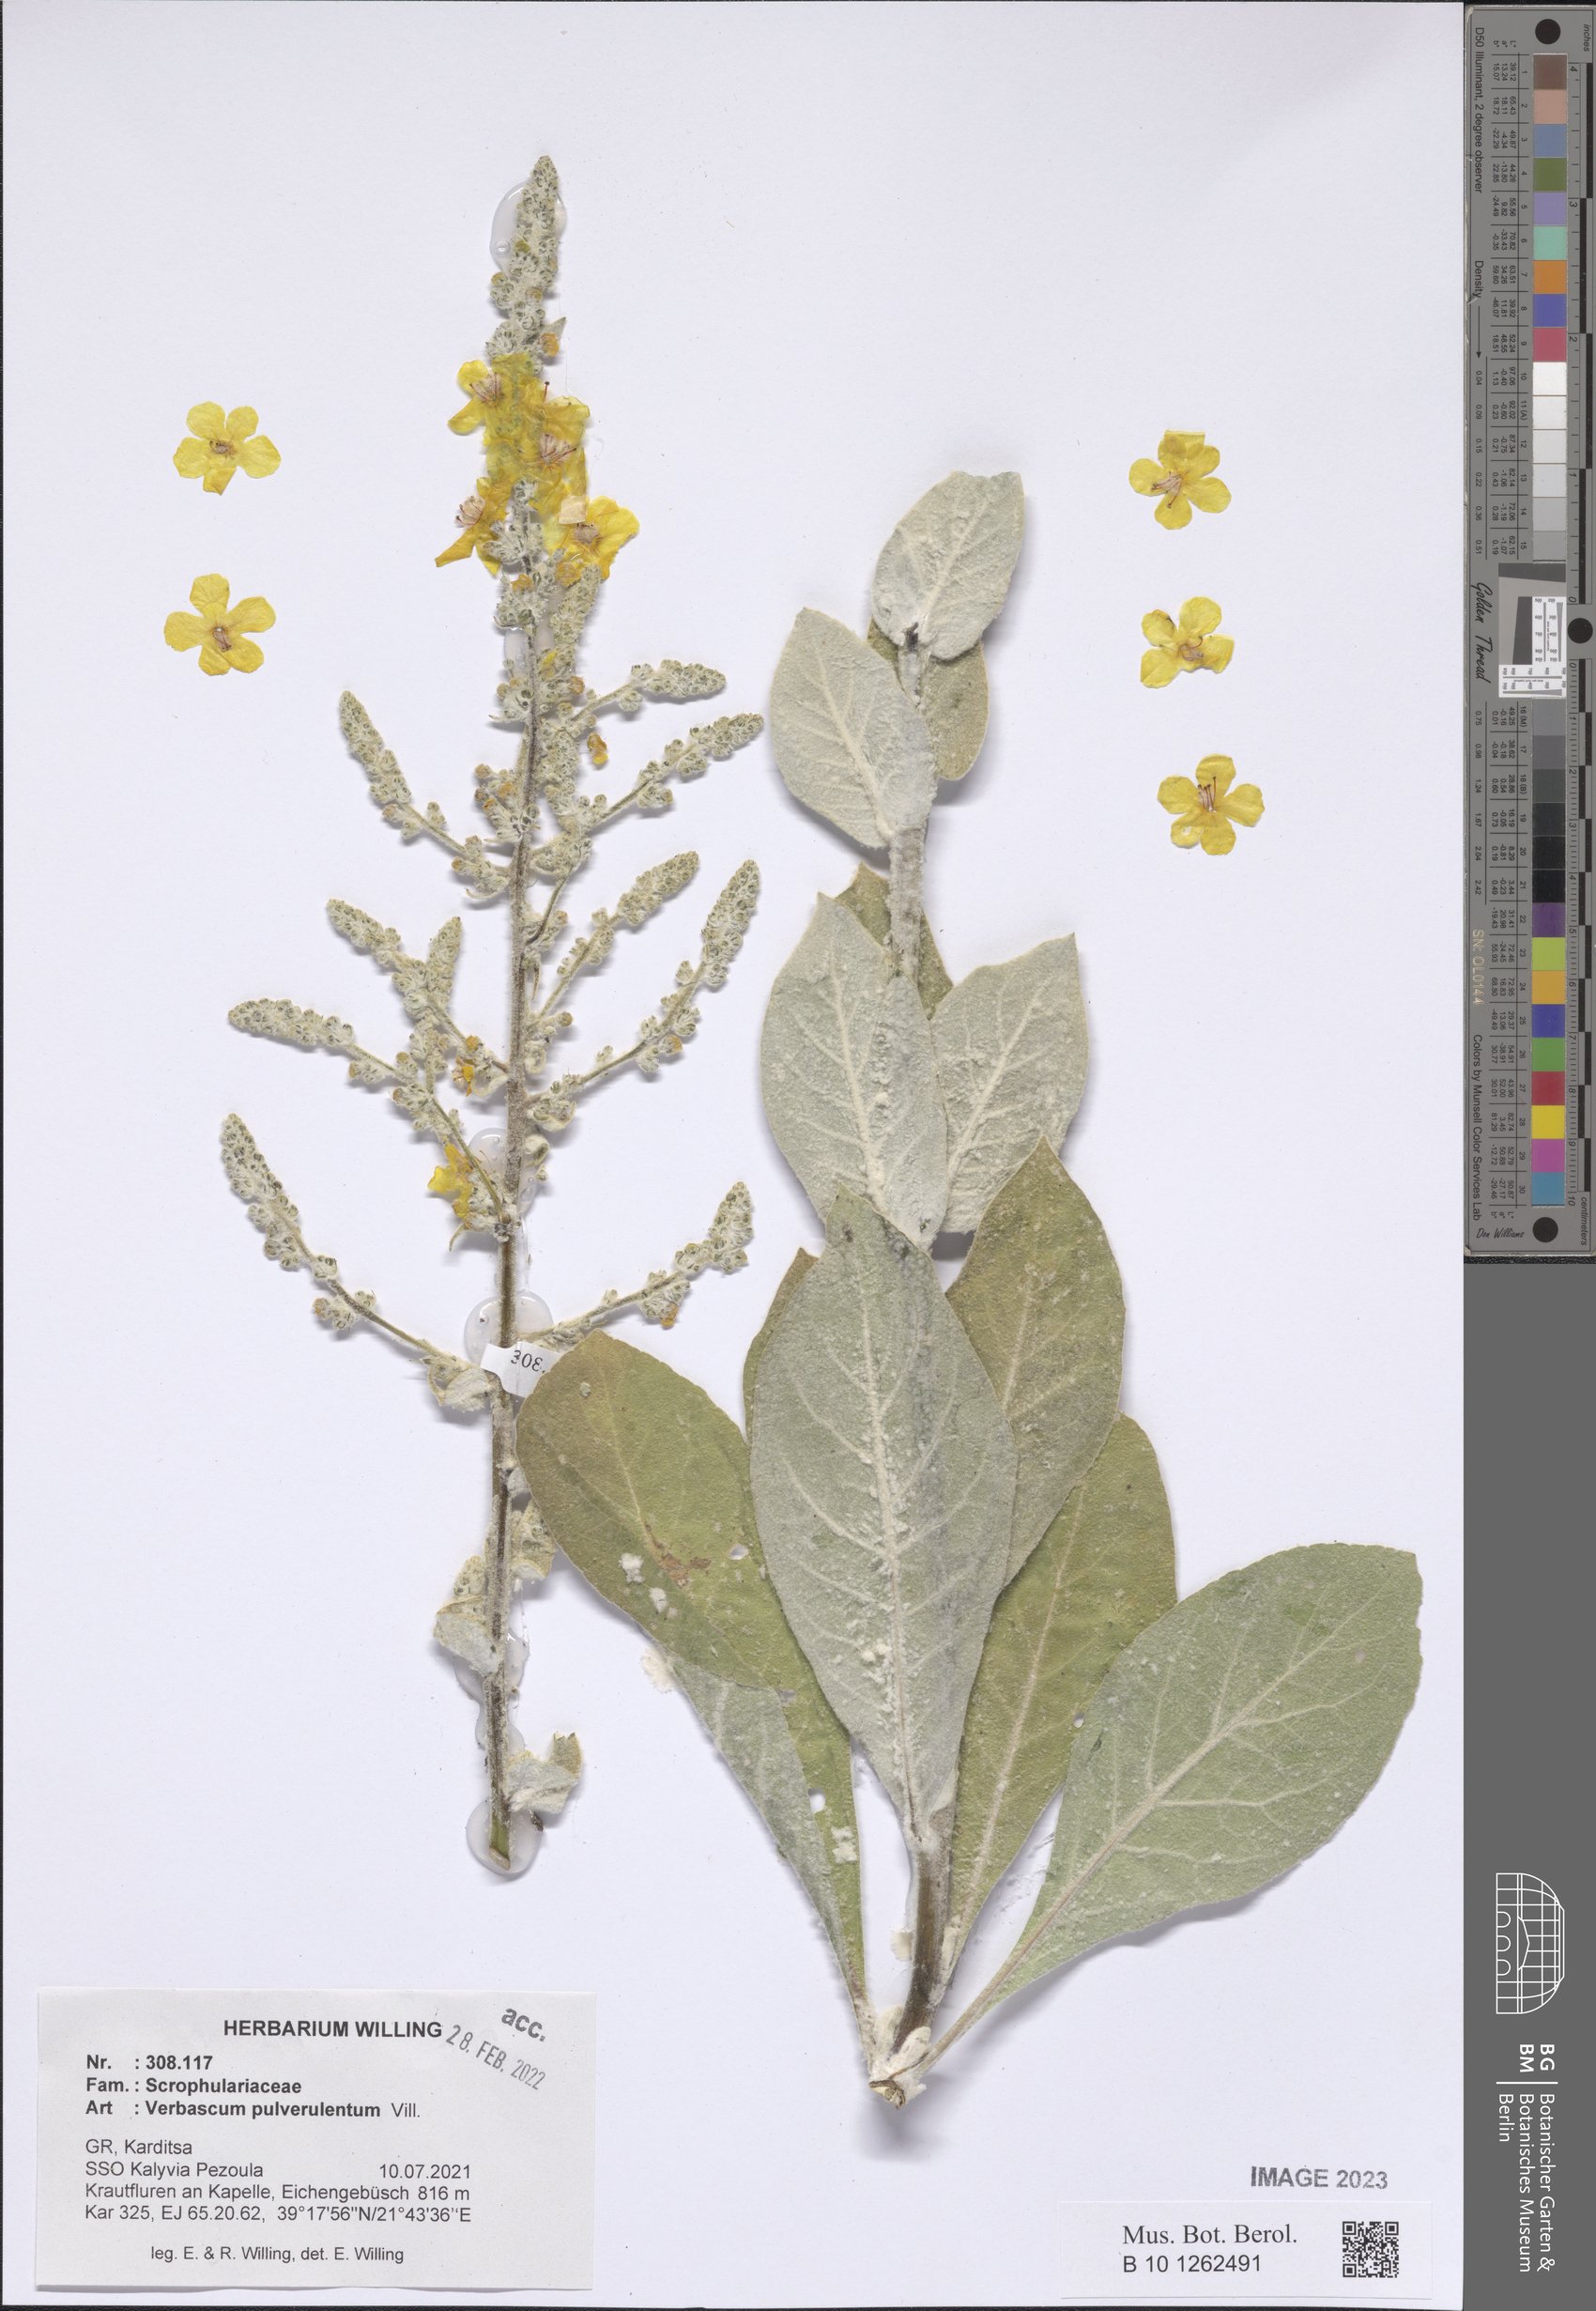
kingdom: Plantae
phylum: Tracheophyta
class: Magnoliopsida
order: Lamiales
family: Scrophulariaceae
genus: Verbascum
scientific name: Verbascum pulverulentum
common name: Broad-leaf mullein
